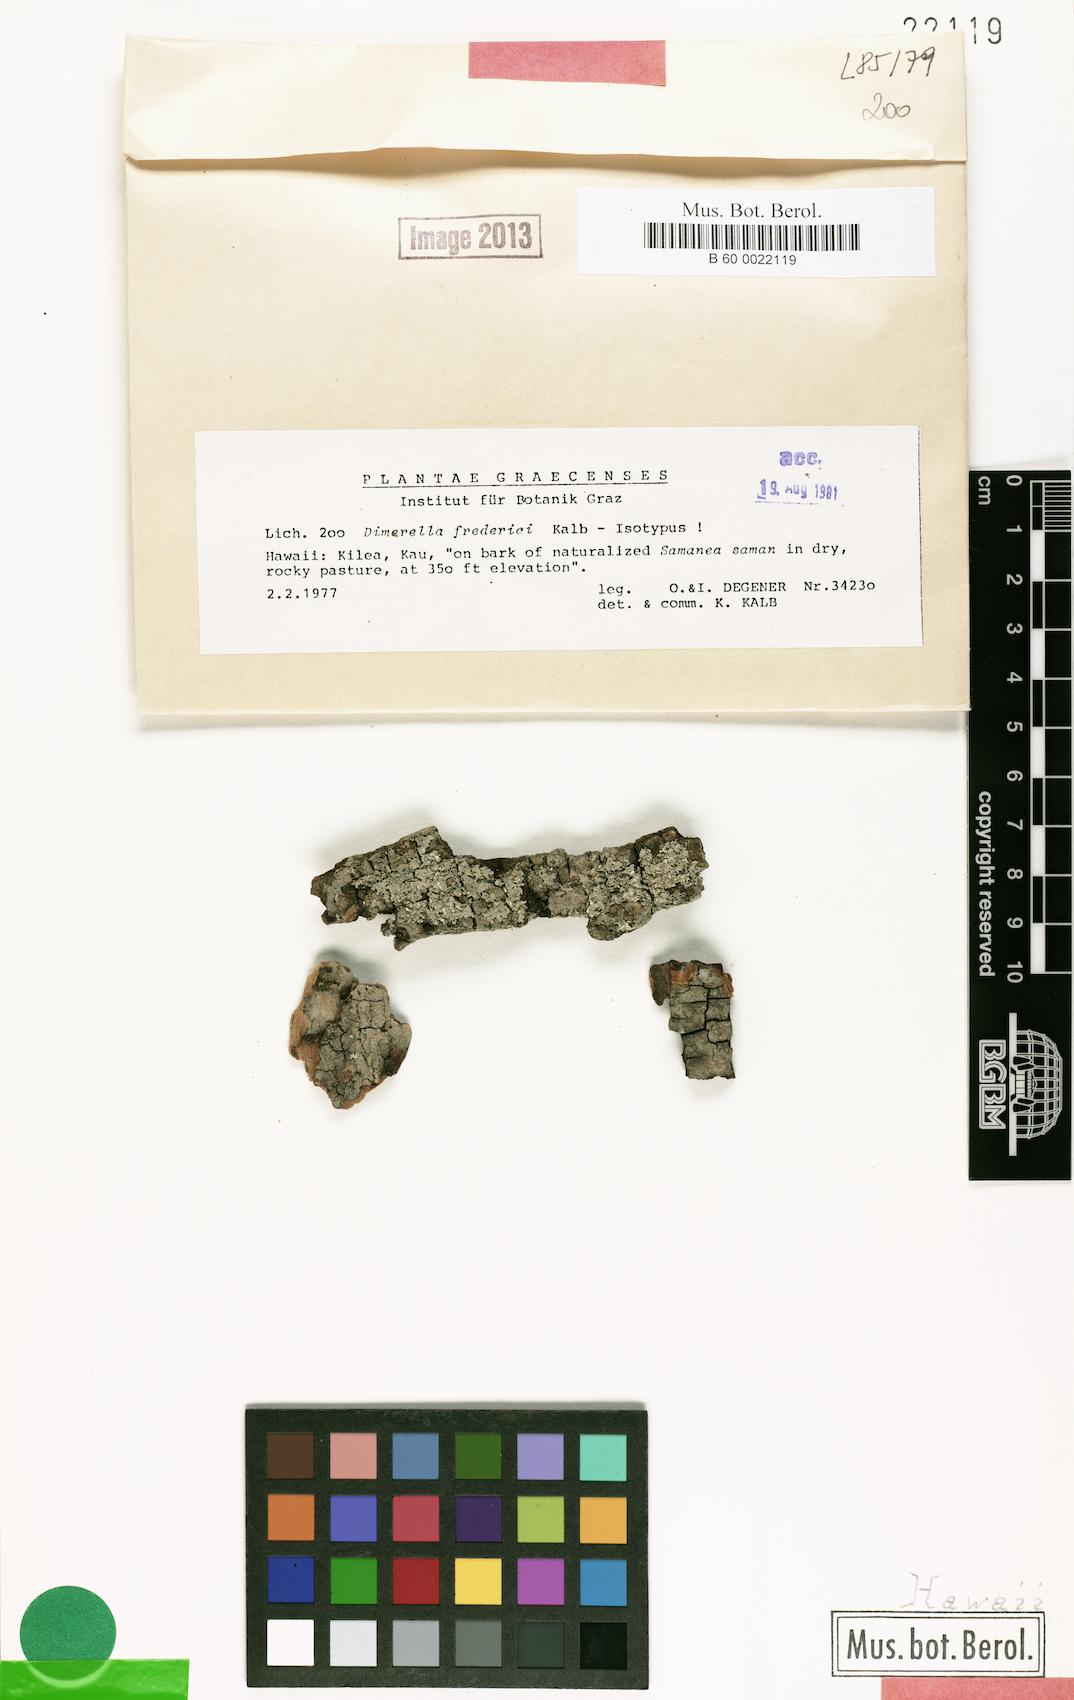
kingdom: Fungi
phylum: Ascomycota
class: Lecanoromycetes
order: Gyalectales
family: Gyalectaceae
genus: Dimerella
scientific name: Dimerella fredrici
